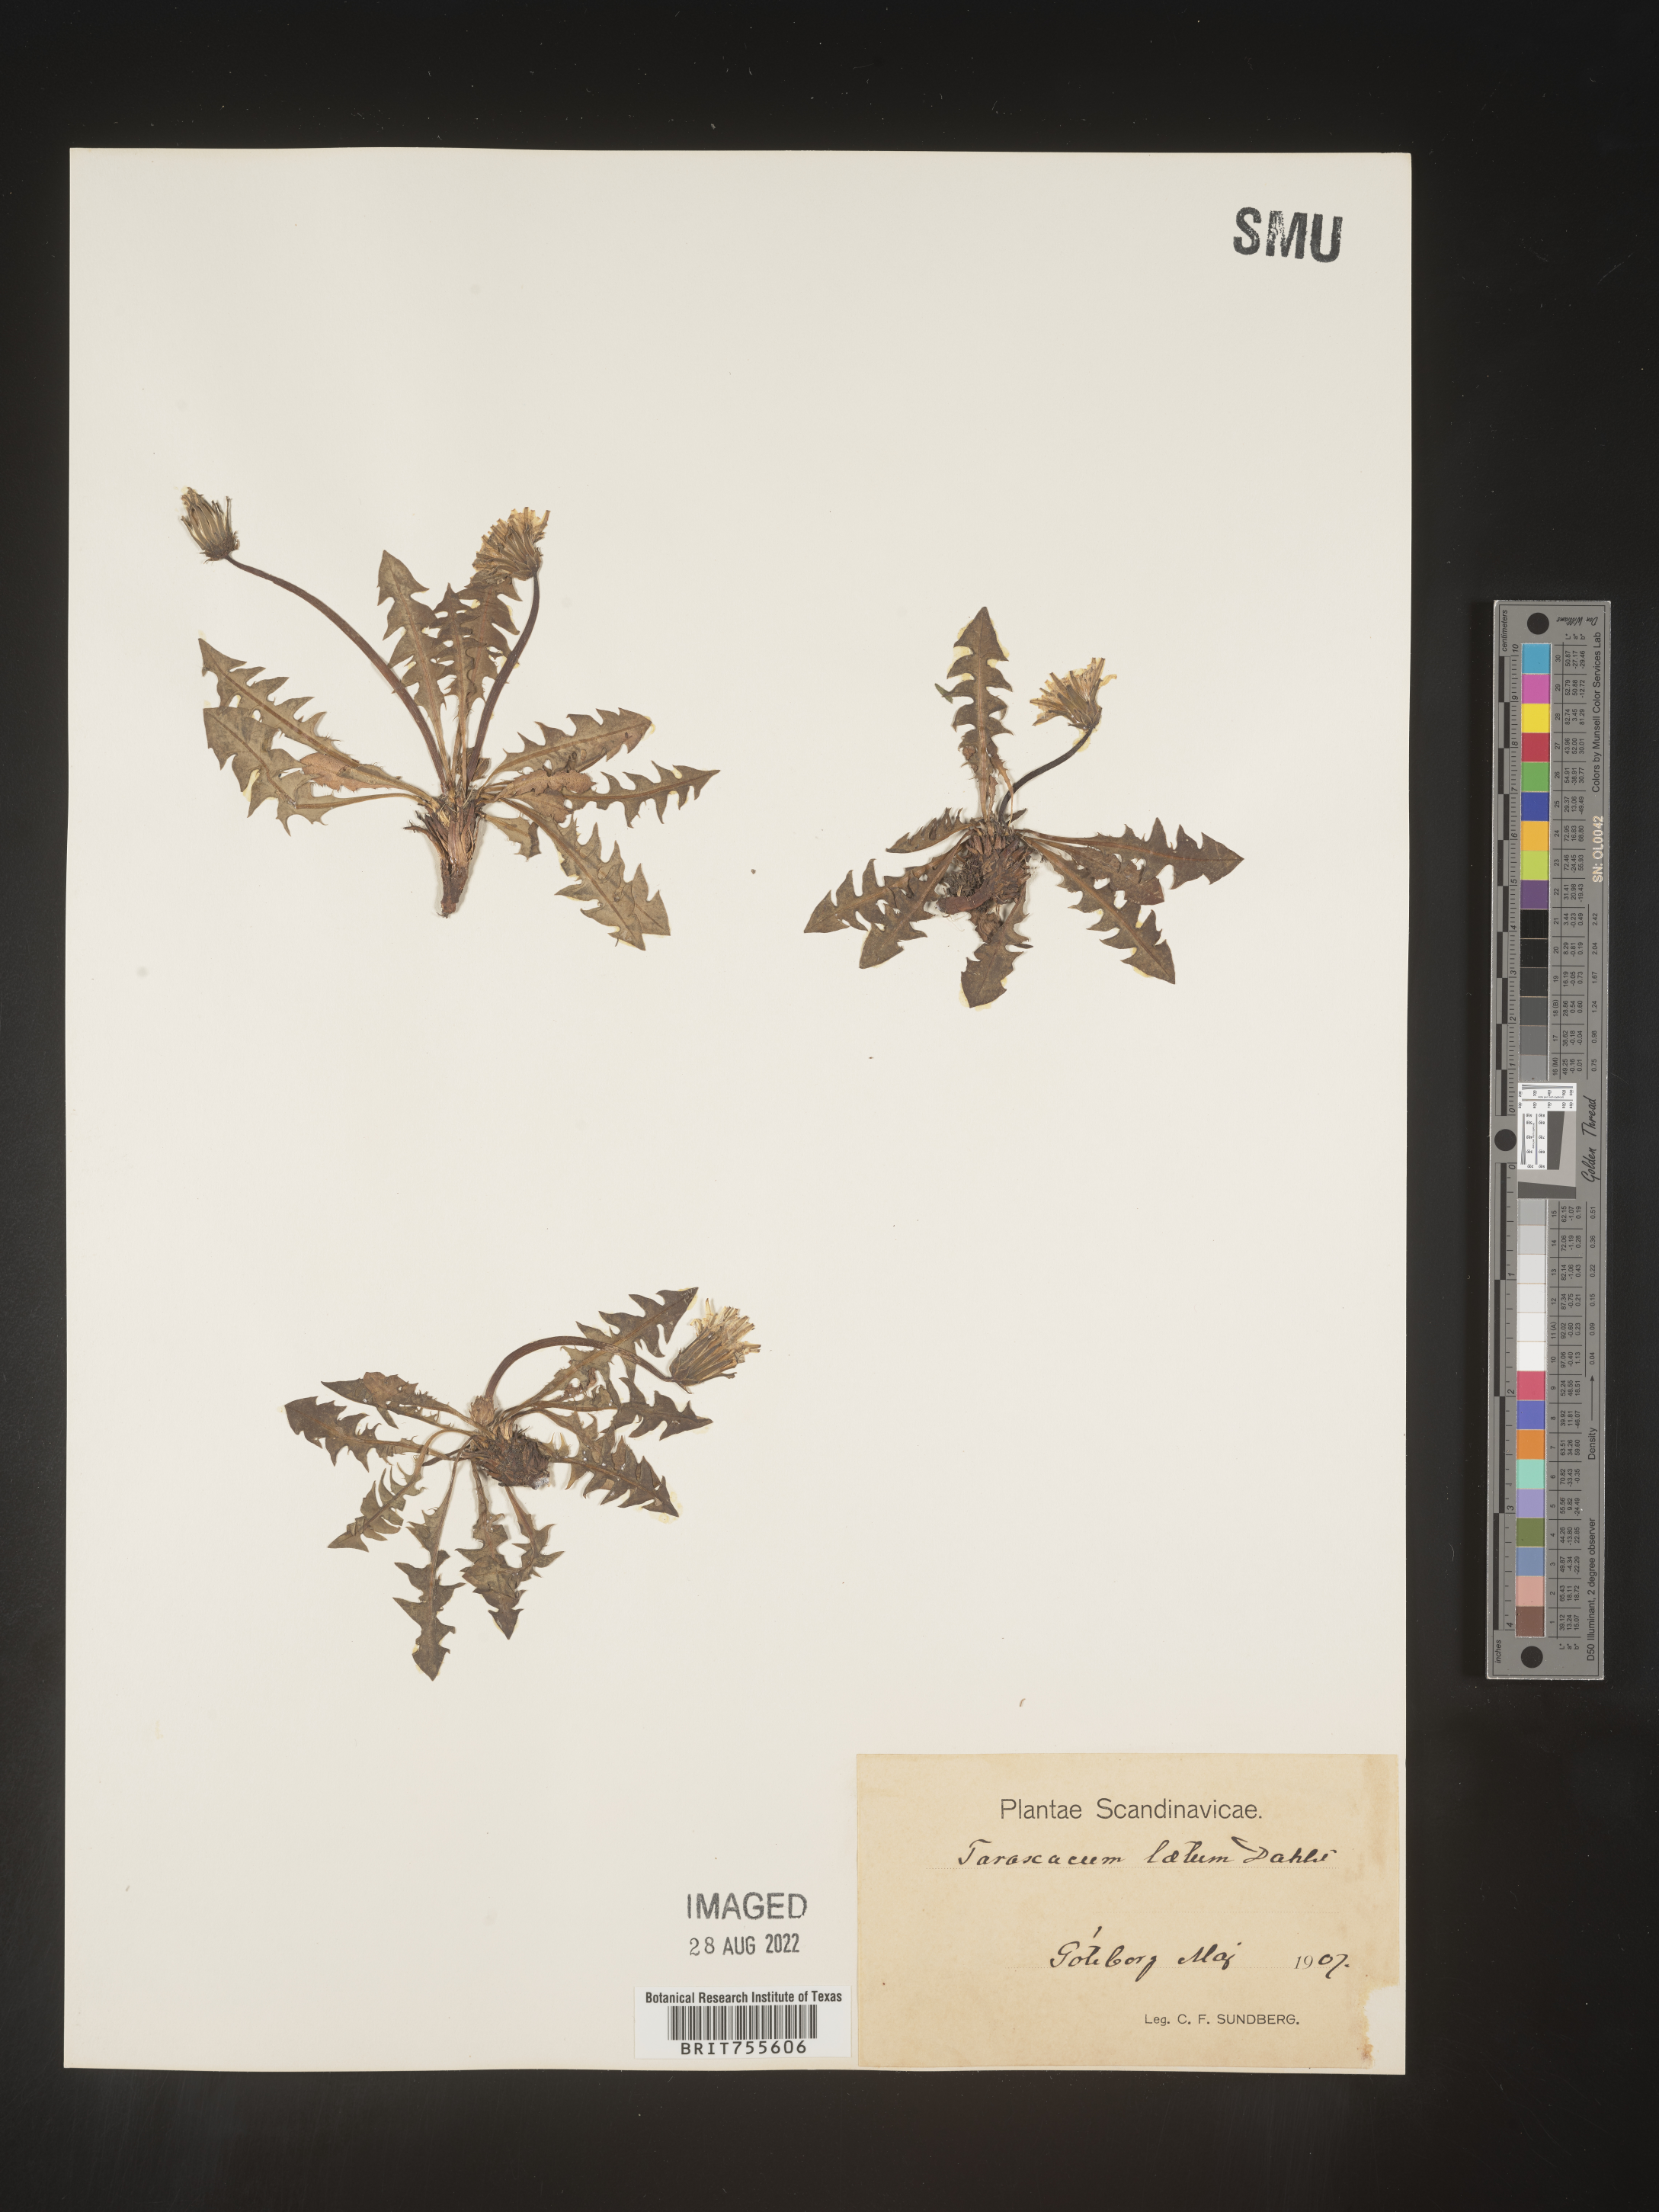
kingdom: Plantae
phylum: Tracheophyta
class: Magnoliopsida
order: Asterales
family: Asteraceae
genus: Taraxacum
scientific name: Taraxacum
